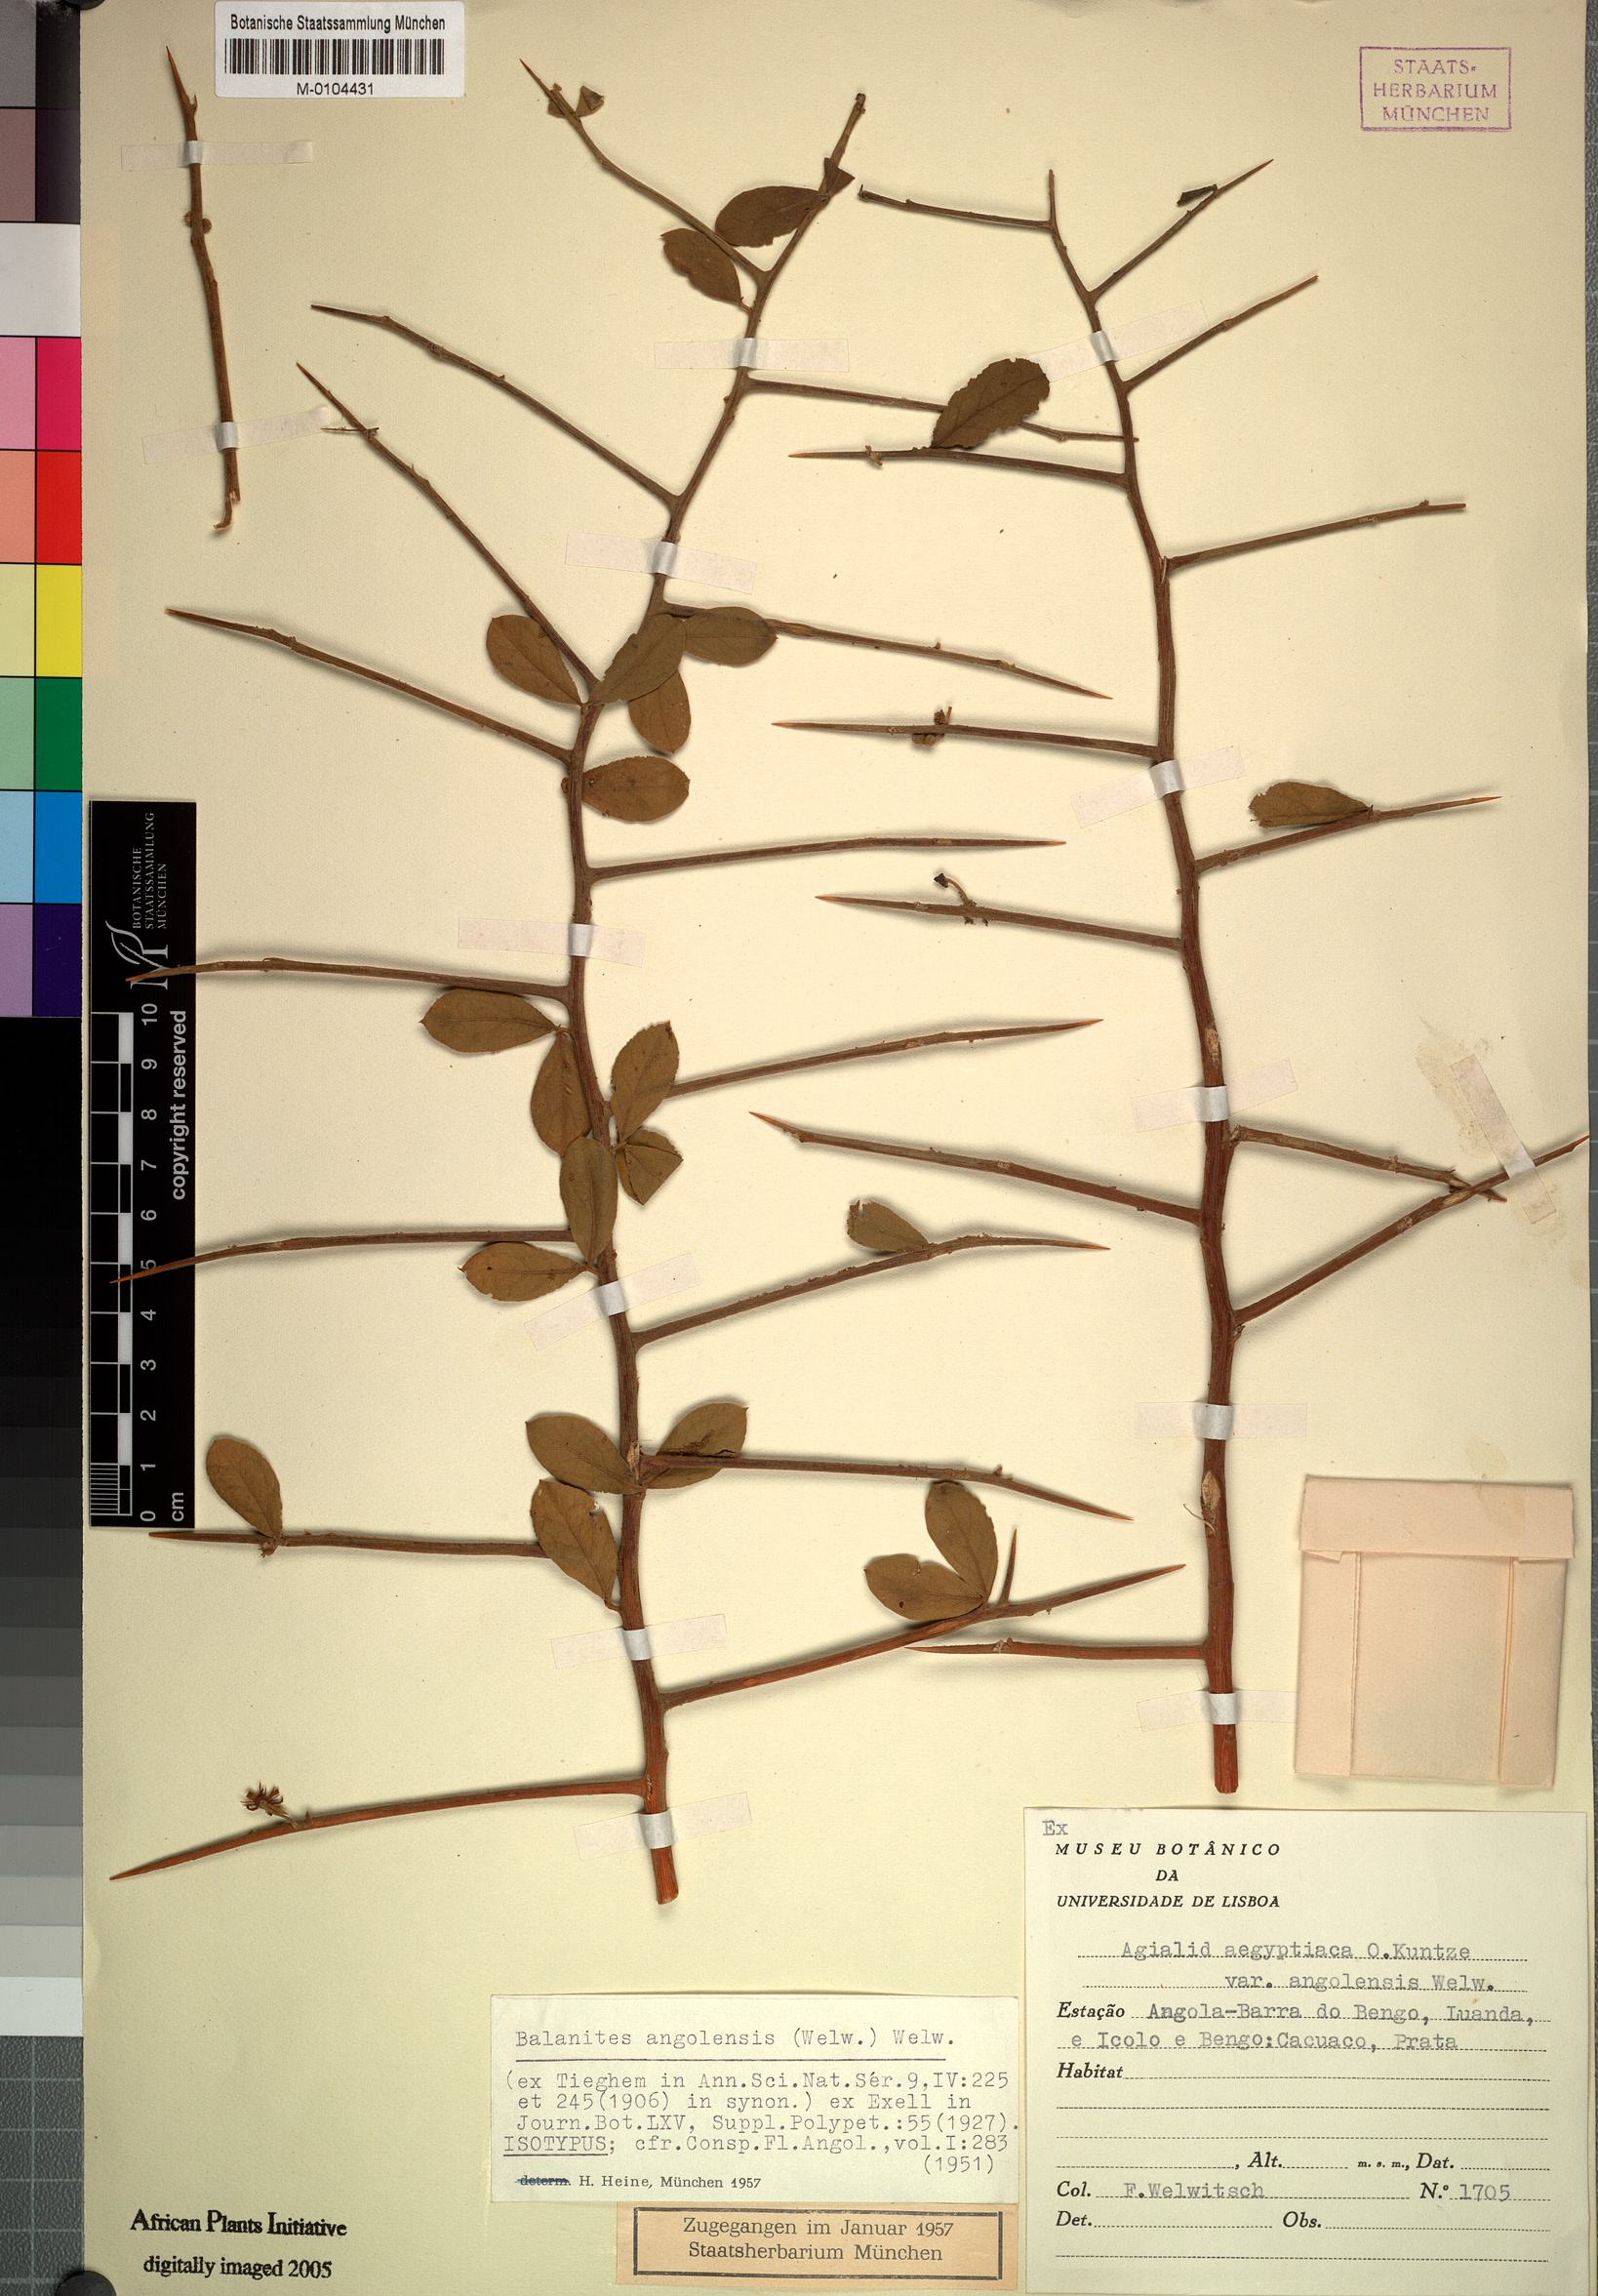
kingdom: Plantae
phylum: Tracheophyta
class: Magnoliopsida
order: Zygophyllales
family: Zygophyllaceae
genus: Balanites
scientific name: Balanites angolensis
